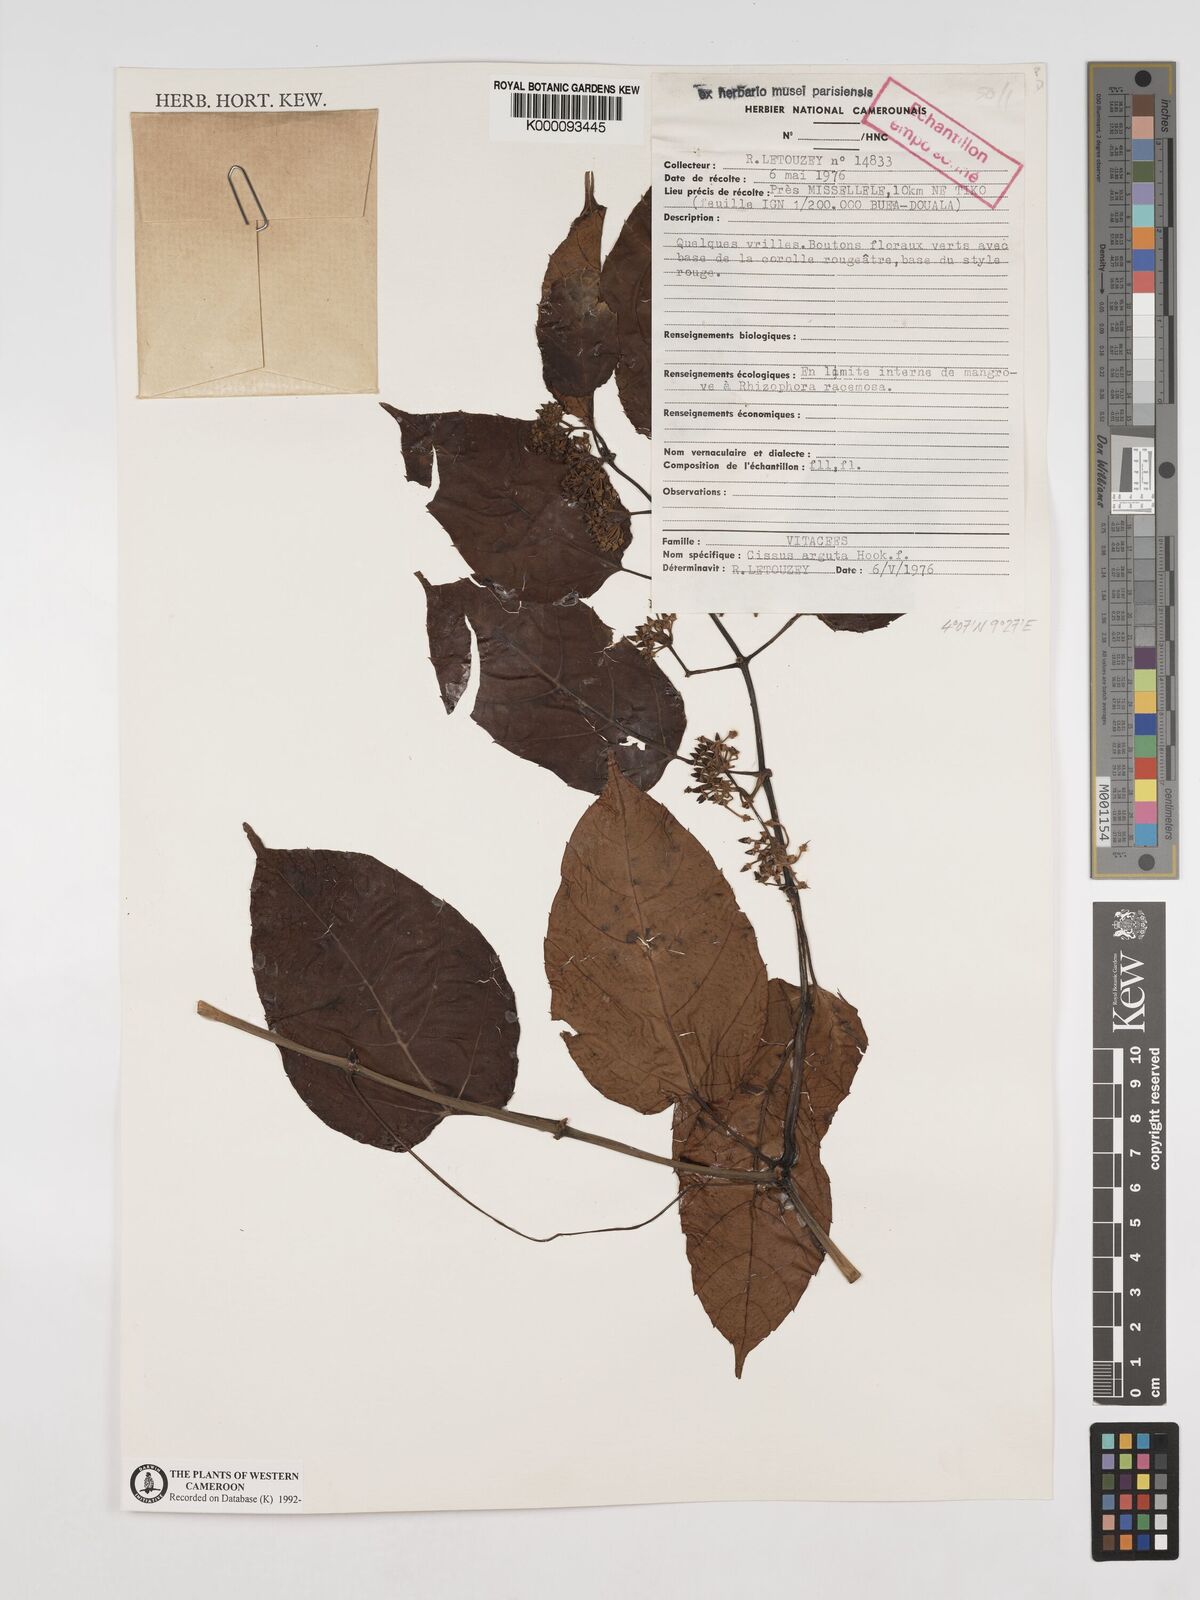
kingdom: Plantae
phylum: Tracheophyta
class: Magnoliopsida
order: Vitales
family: Vitaceae
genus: Cissus
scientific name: Cissus arguta
